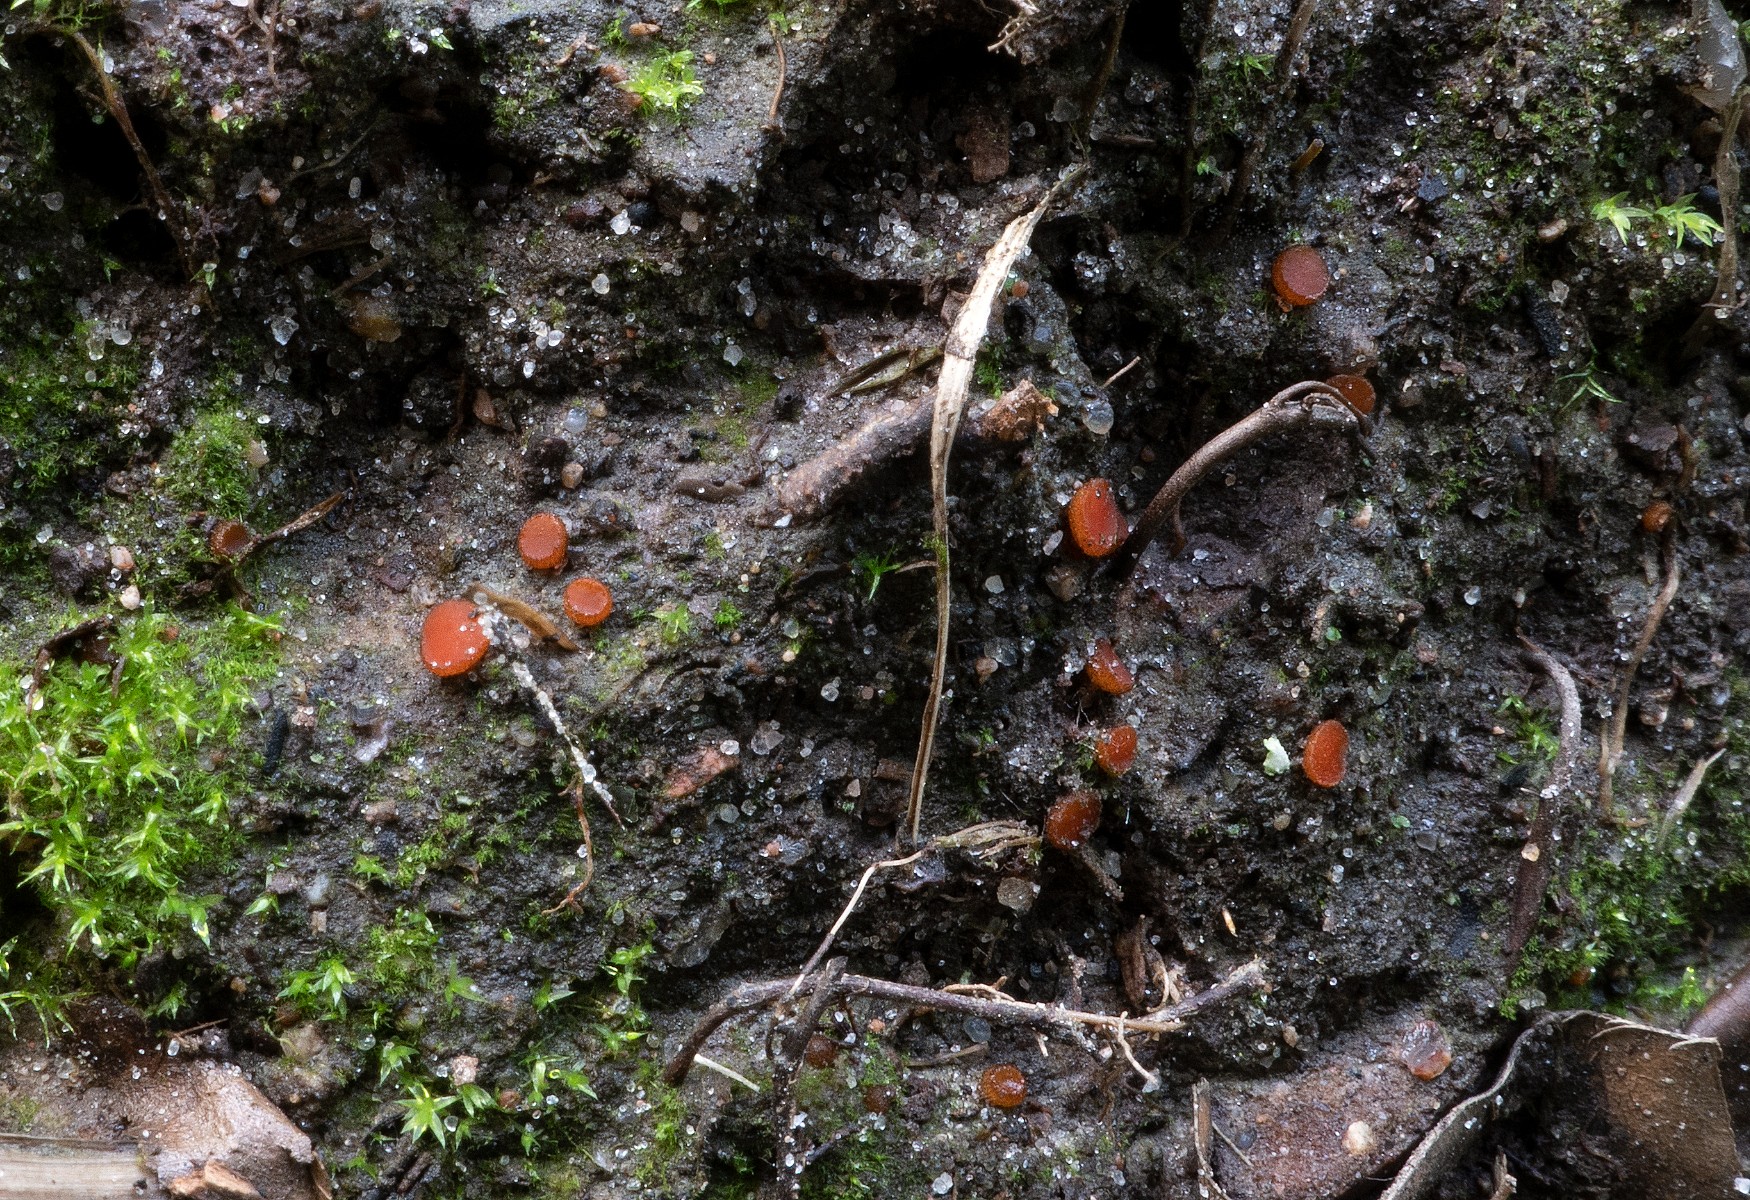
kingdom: Fungi
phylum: Ascomycota
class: Pezizomycetes
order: Pezizales
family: Pyronemataceae
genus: Scutellinia
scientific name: Scutellinia pseudotrechispora
